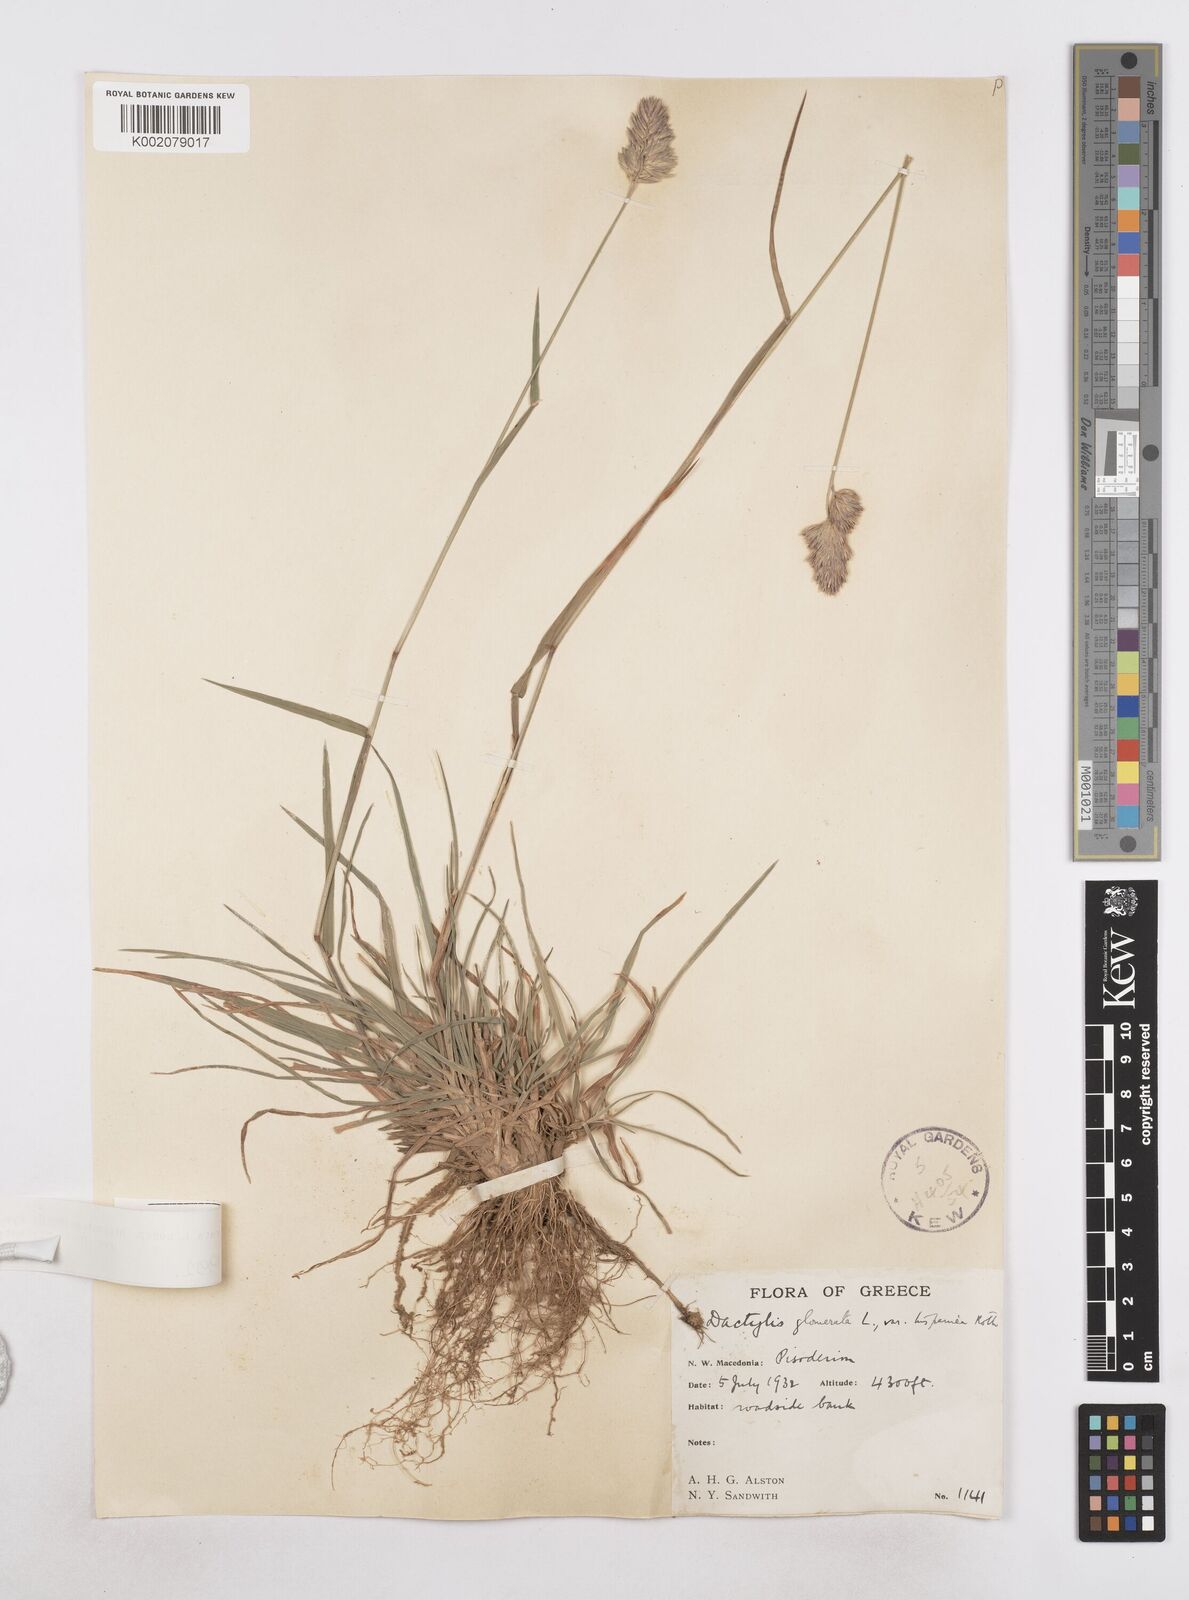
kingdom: Plantae
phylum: Tracheophyta
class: Liliopsida
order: Poales
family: Poaceae
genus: Dactylis
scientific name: Dactylis glomerata
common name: Orchardgrass
